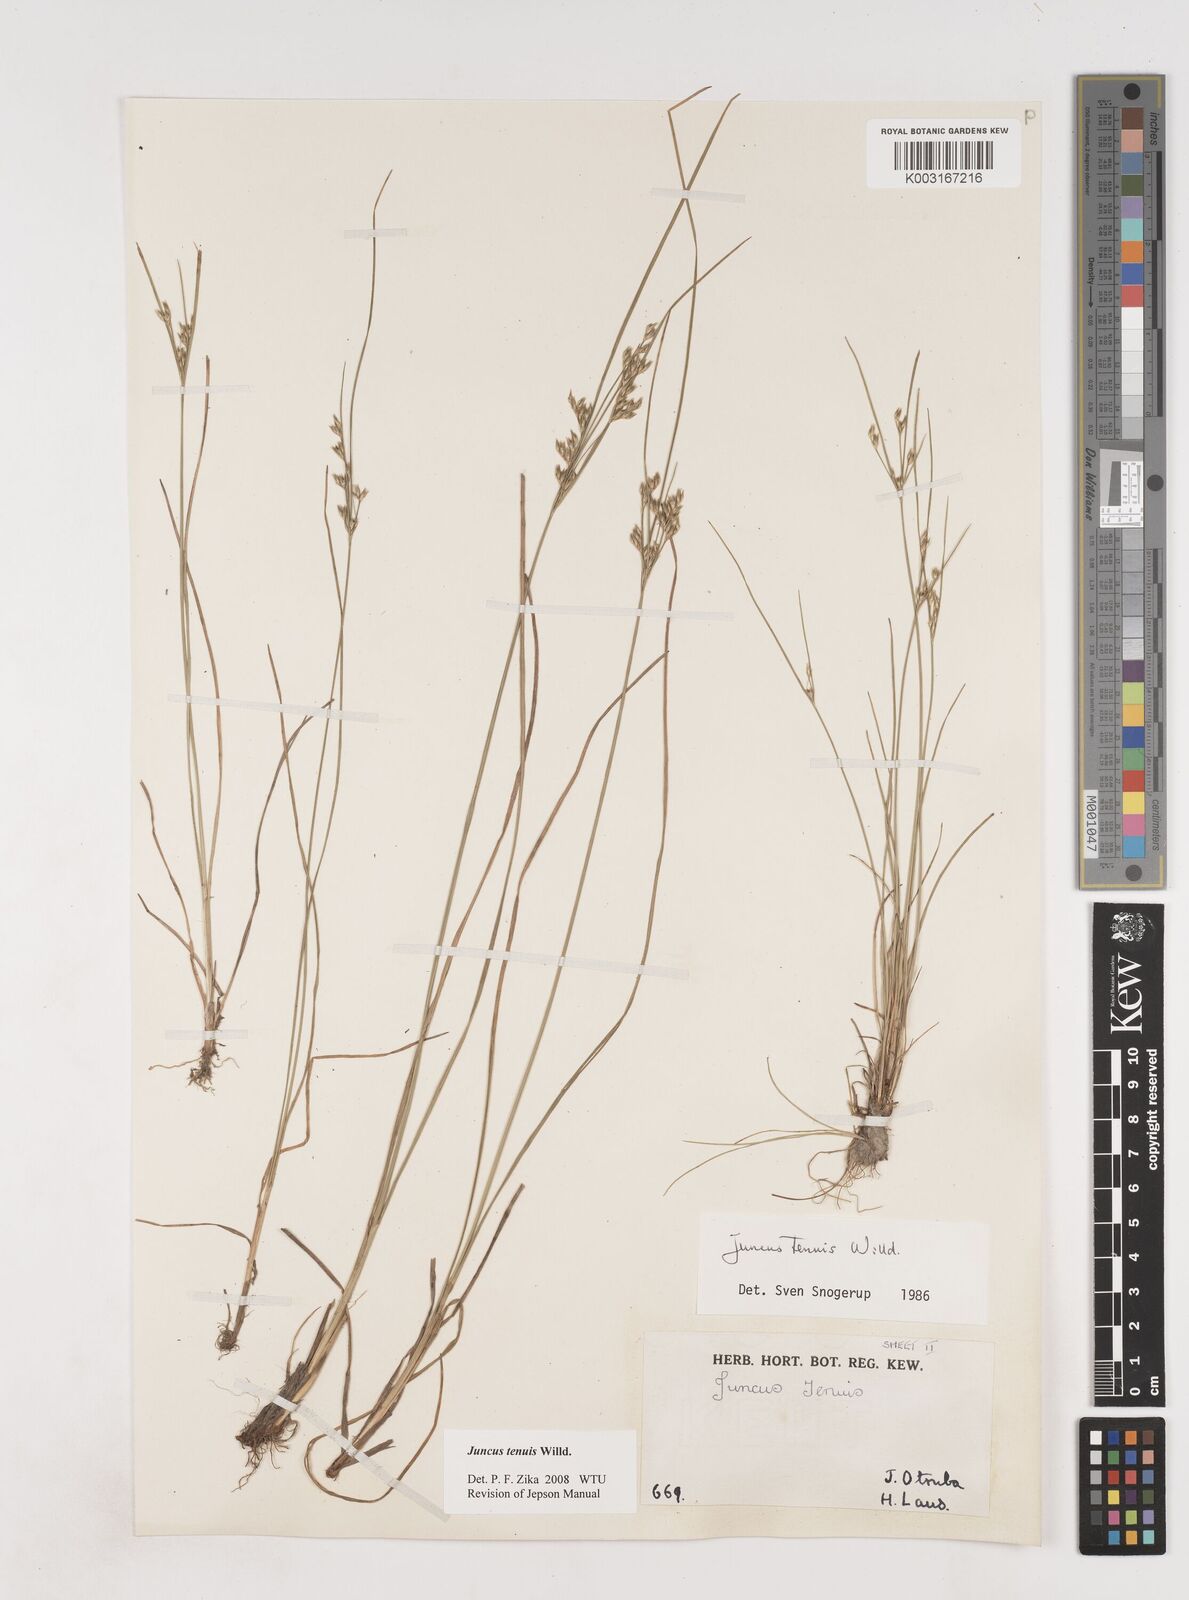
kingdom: Plantae
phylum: Tracheophyta
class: Liliopsida
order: Poales
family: Juncaceae
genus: Juncus
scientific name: Juncus tenuis
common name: Slender rush
